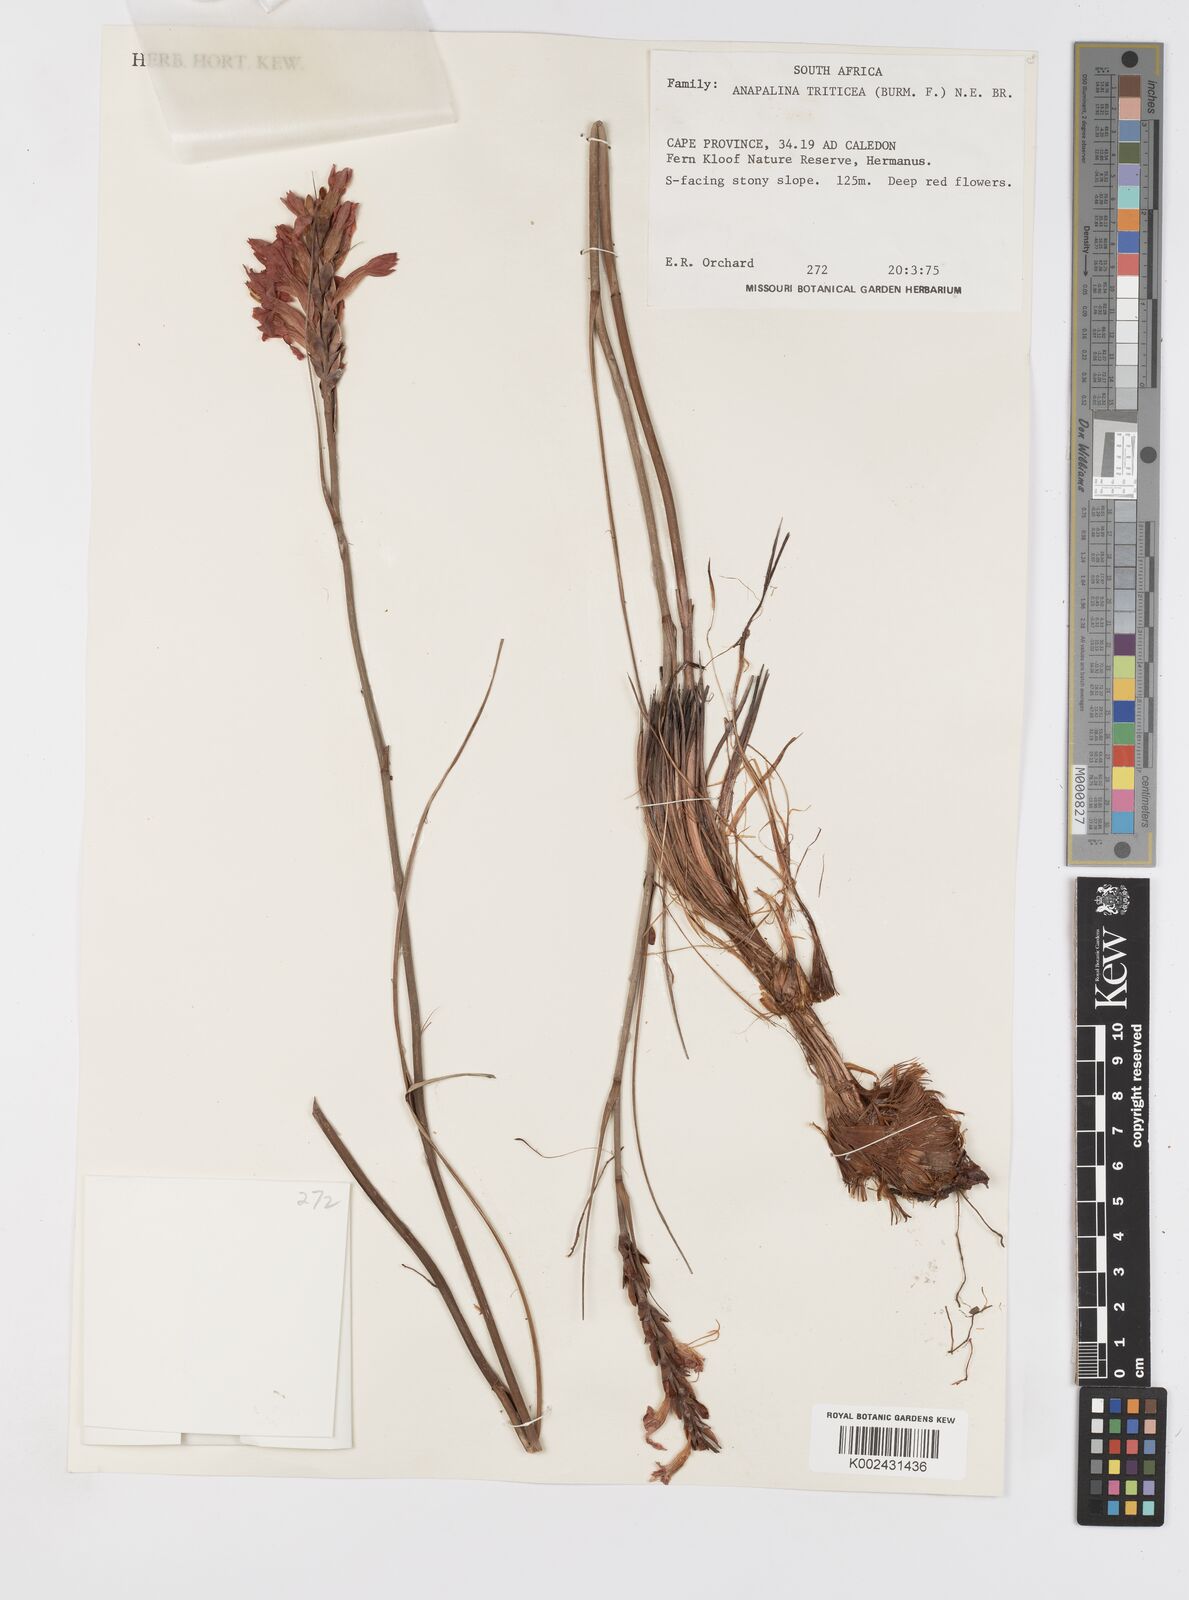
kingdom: Plantae
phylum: Tracheophyta
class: Liliopsida
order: Asparagales
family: Iridaceae
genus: Tritoniopsis
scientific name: Tritoniopsis triticea
